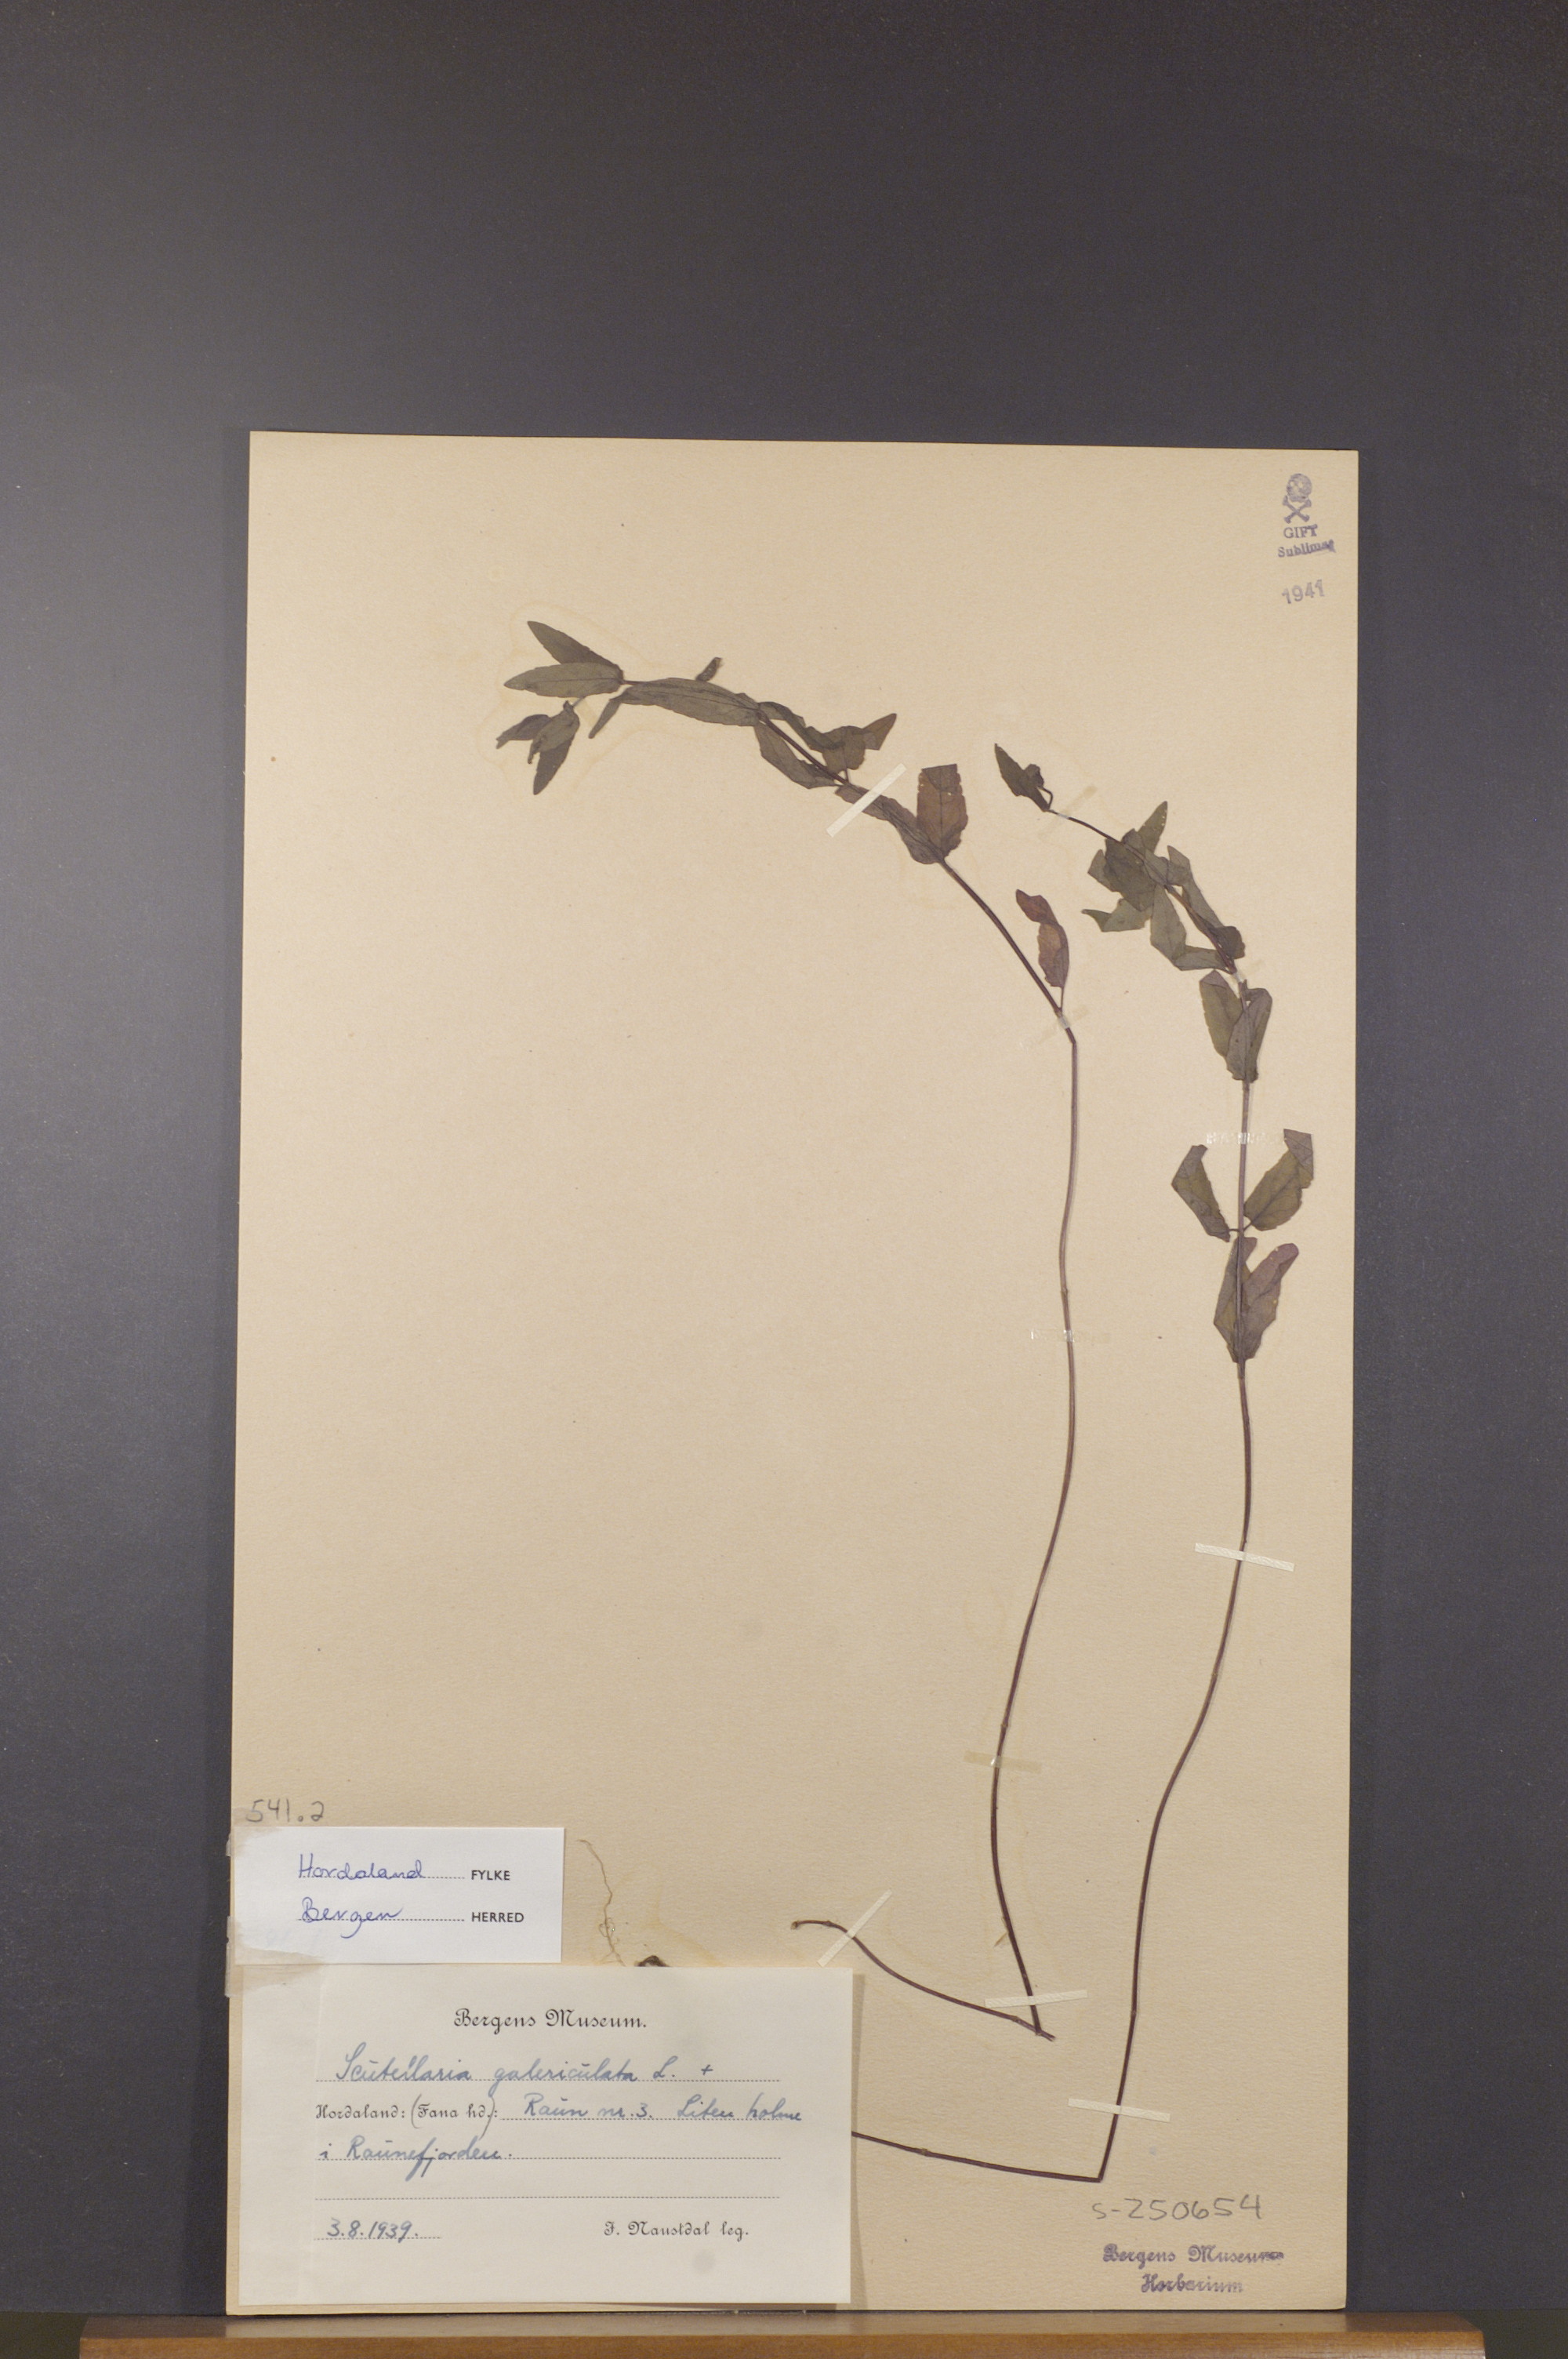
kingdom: Plantae
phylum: Tracheophyta
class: Magnoliopsida
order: Lamiales
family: Lamiaceae
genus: Scutellaria
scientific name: Scutellaria galericulata
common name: Skullcap
